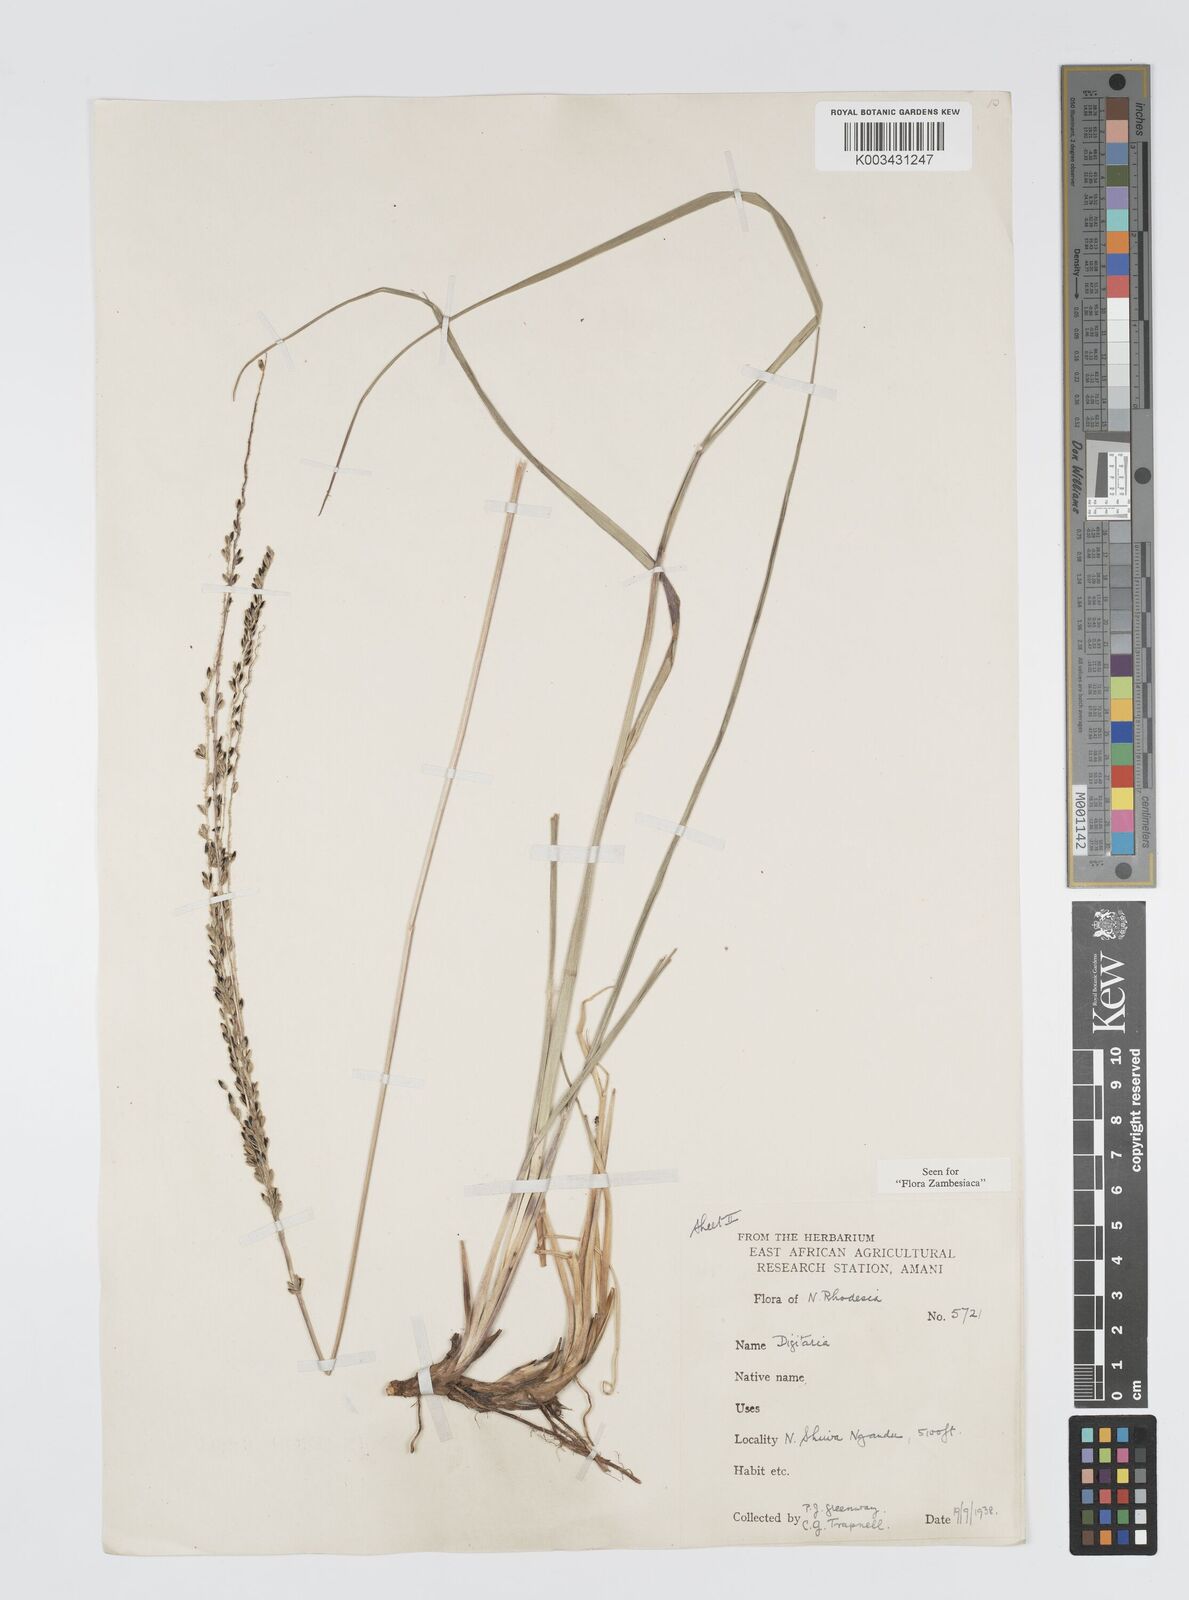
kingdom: Plantae
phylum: Tracheophyta
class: Liliopsida
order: Poales
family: Poaceae
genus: Digitaria
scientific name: Digitaria hyalina
